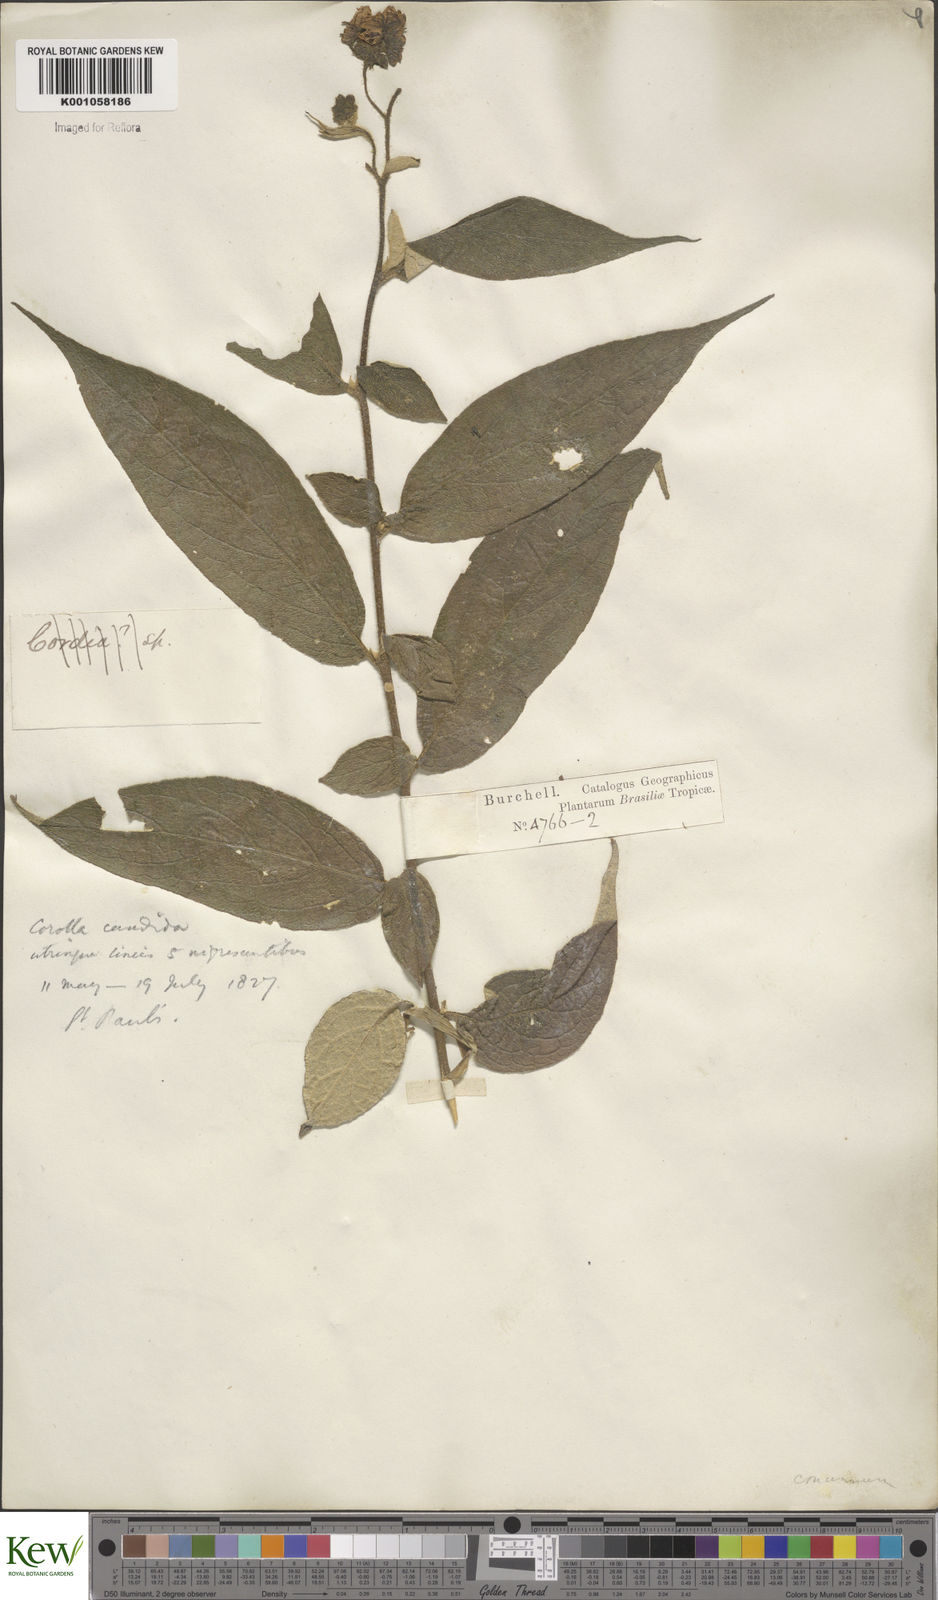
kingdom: Plantae
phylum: Tracheophyta
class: Magnoliopsida
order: Solanales
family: Solanaceae
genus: Solanum
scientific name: Solanum concinnum
